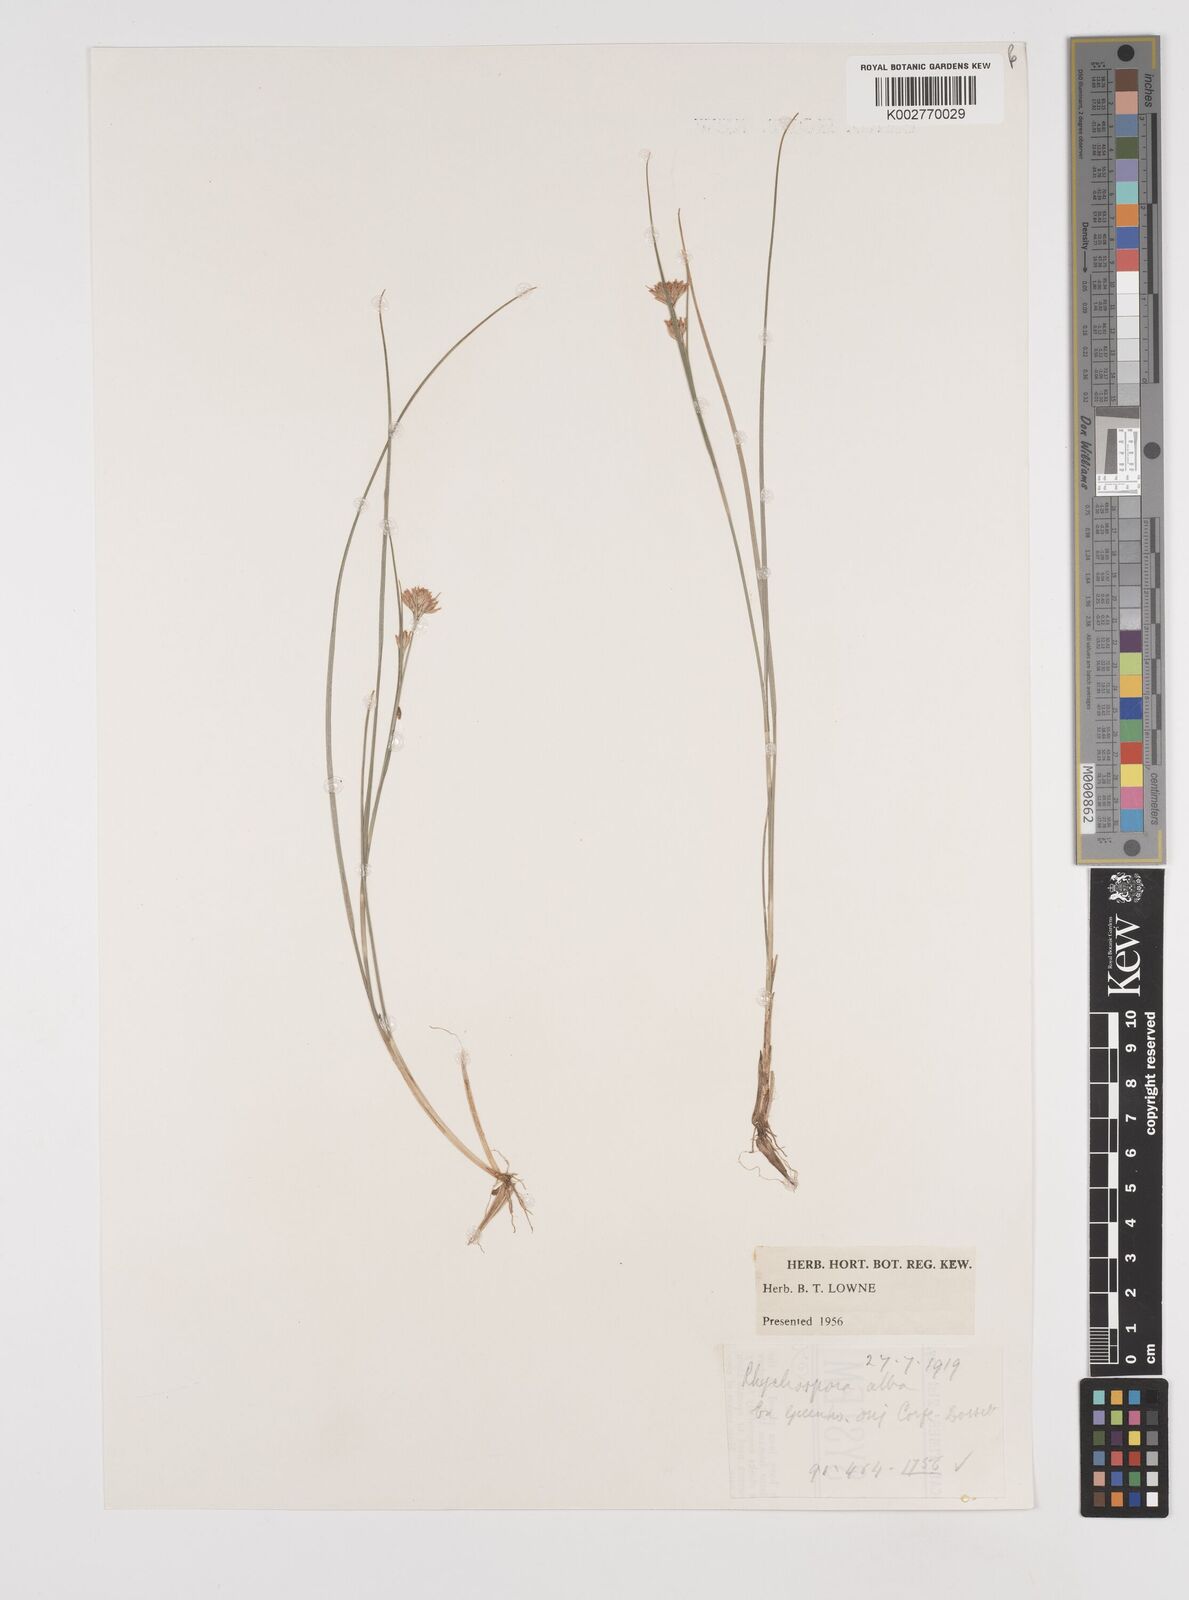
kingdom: Plantae
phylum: Tracheophyta
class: Liliopsida
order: Poales
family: Cyperaceae
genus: Rhynchospora
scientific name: Rhynchospora alba
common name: White beak-sedge
